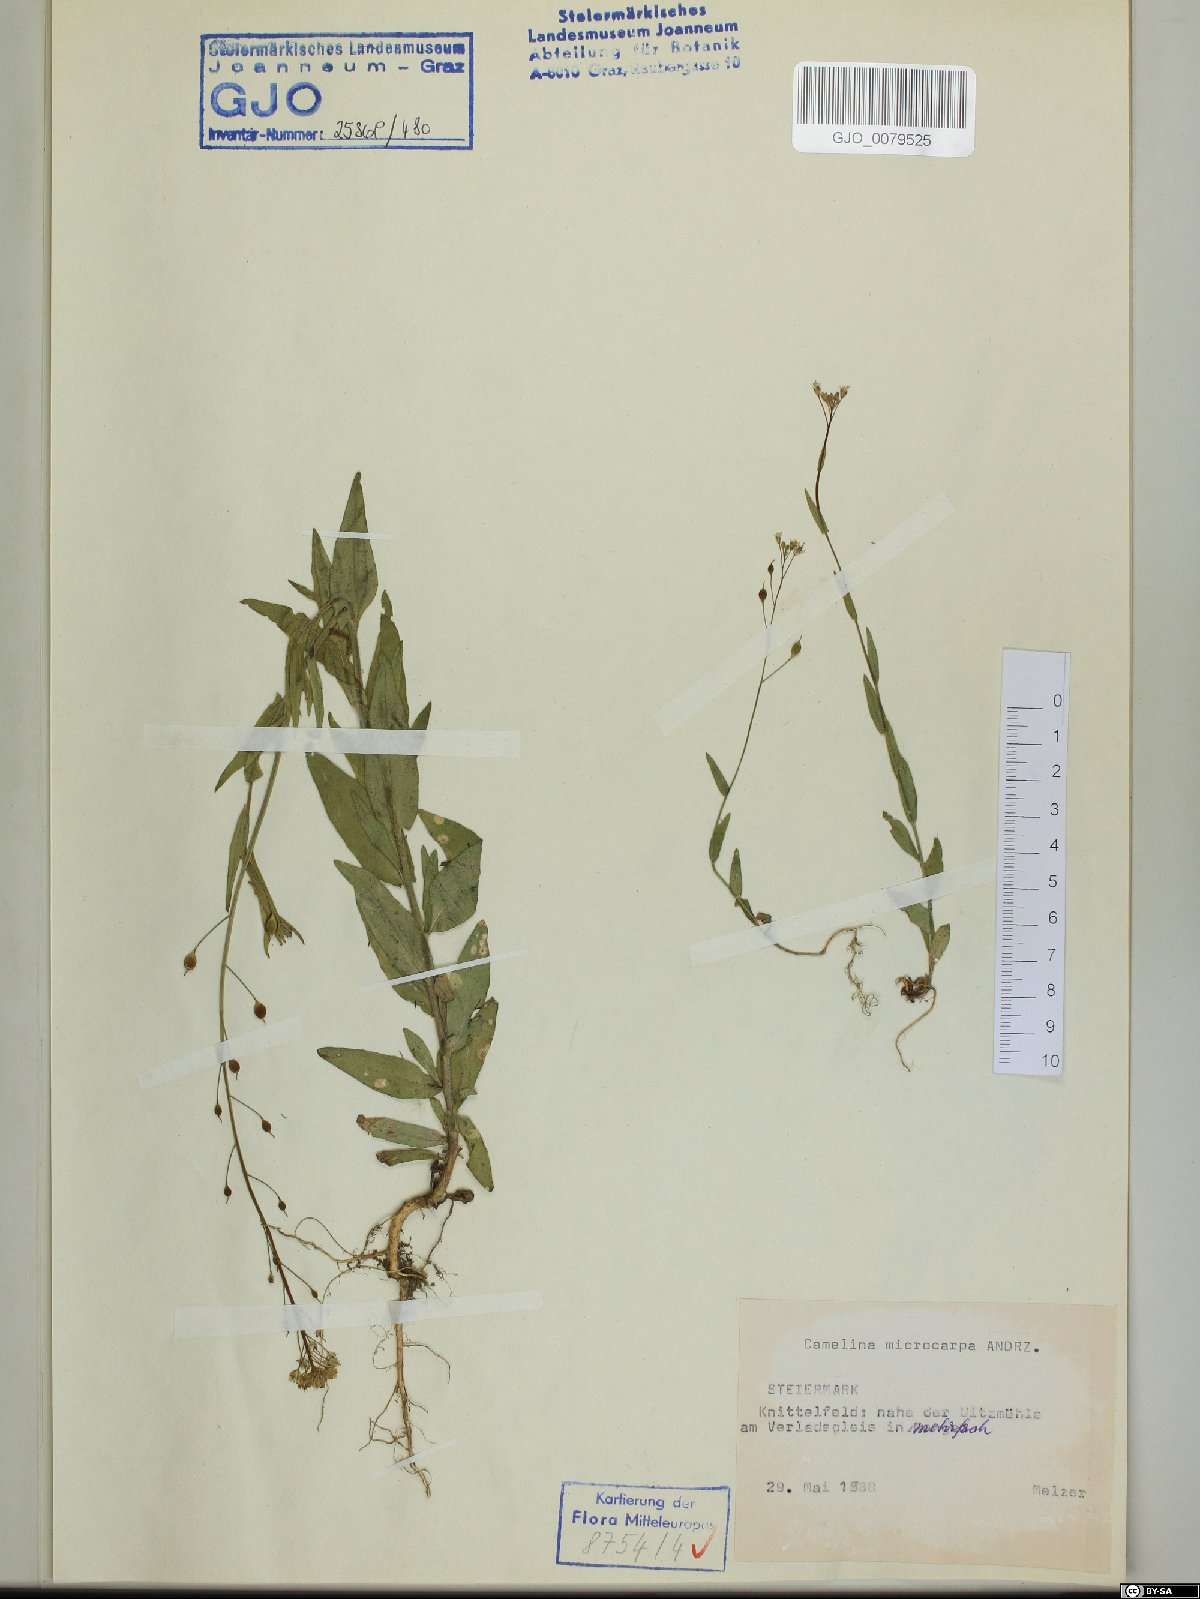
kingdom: Plantae
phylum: Tracheophyta
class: Magnoliopsida
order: Brassicales
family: Brassicaceae
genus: Camelina
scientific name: Camelina microcarpa
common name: Lesser gold-of-pleasure
